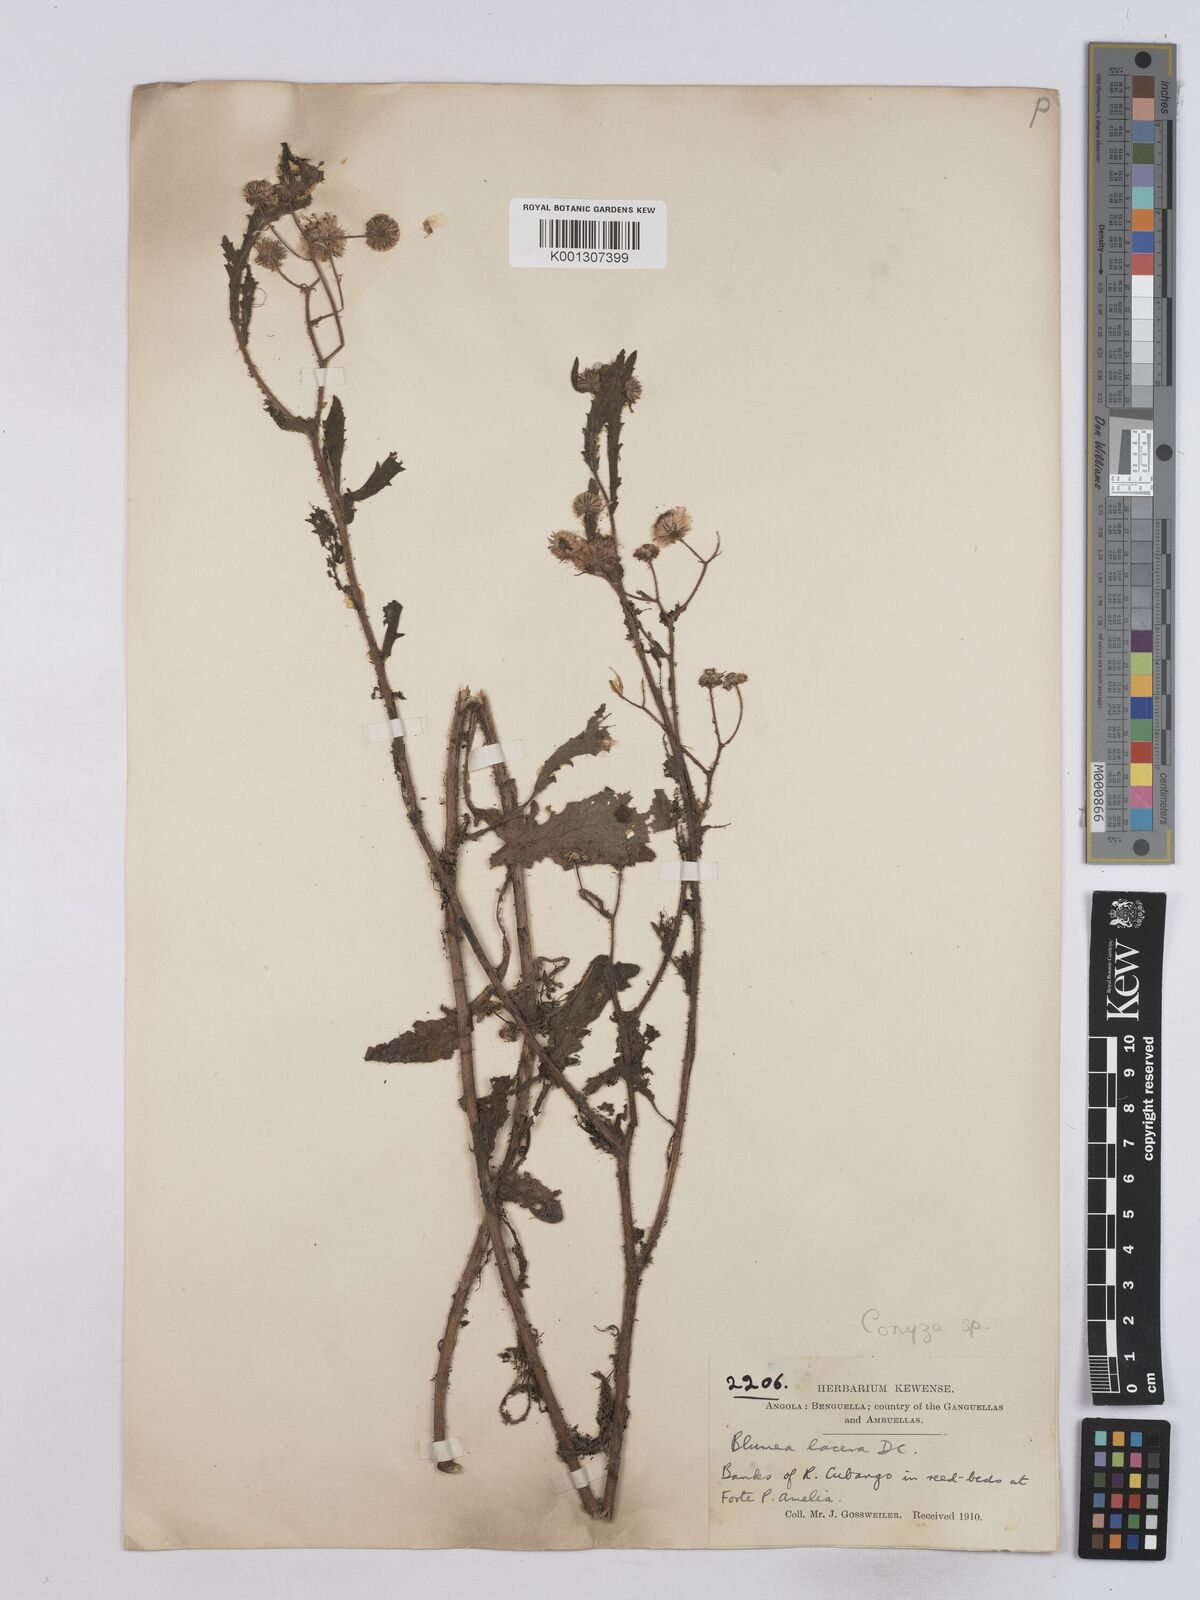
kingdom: Plantae
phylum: Tracheophyta
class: Magnoliopsida
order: Asterales
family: Asteraceae
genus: Conyza
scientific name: Conyza
